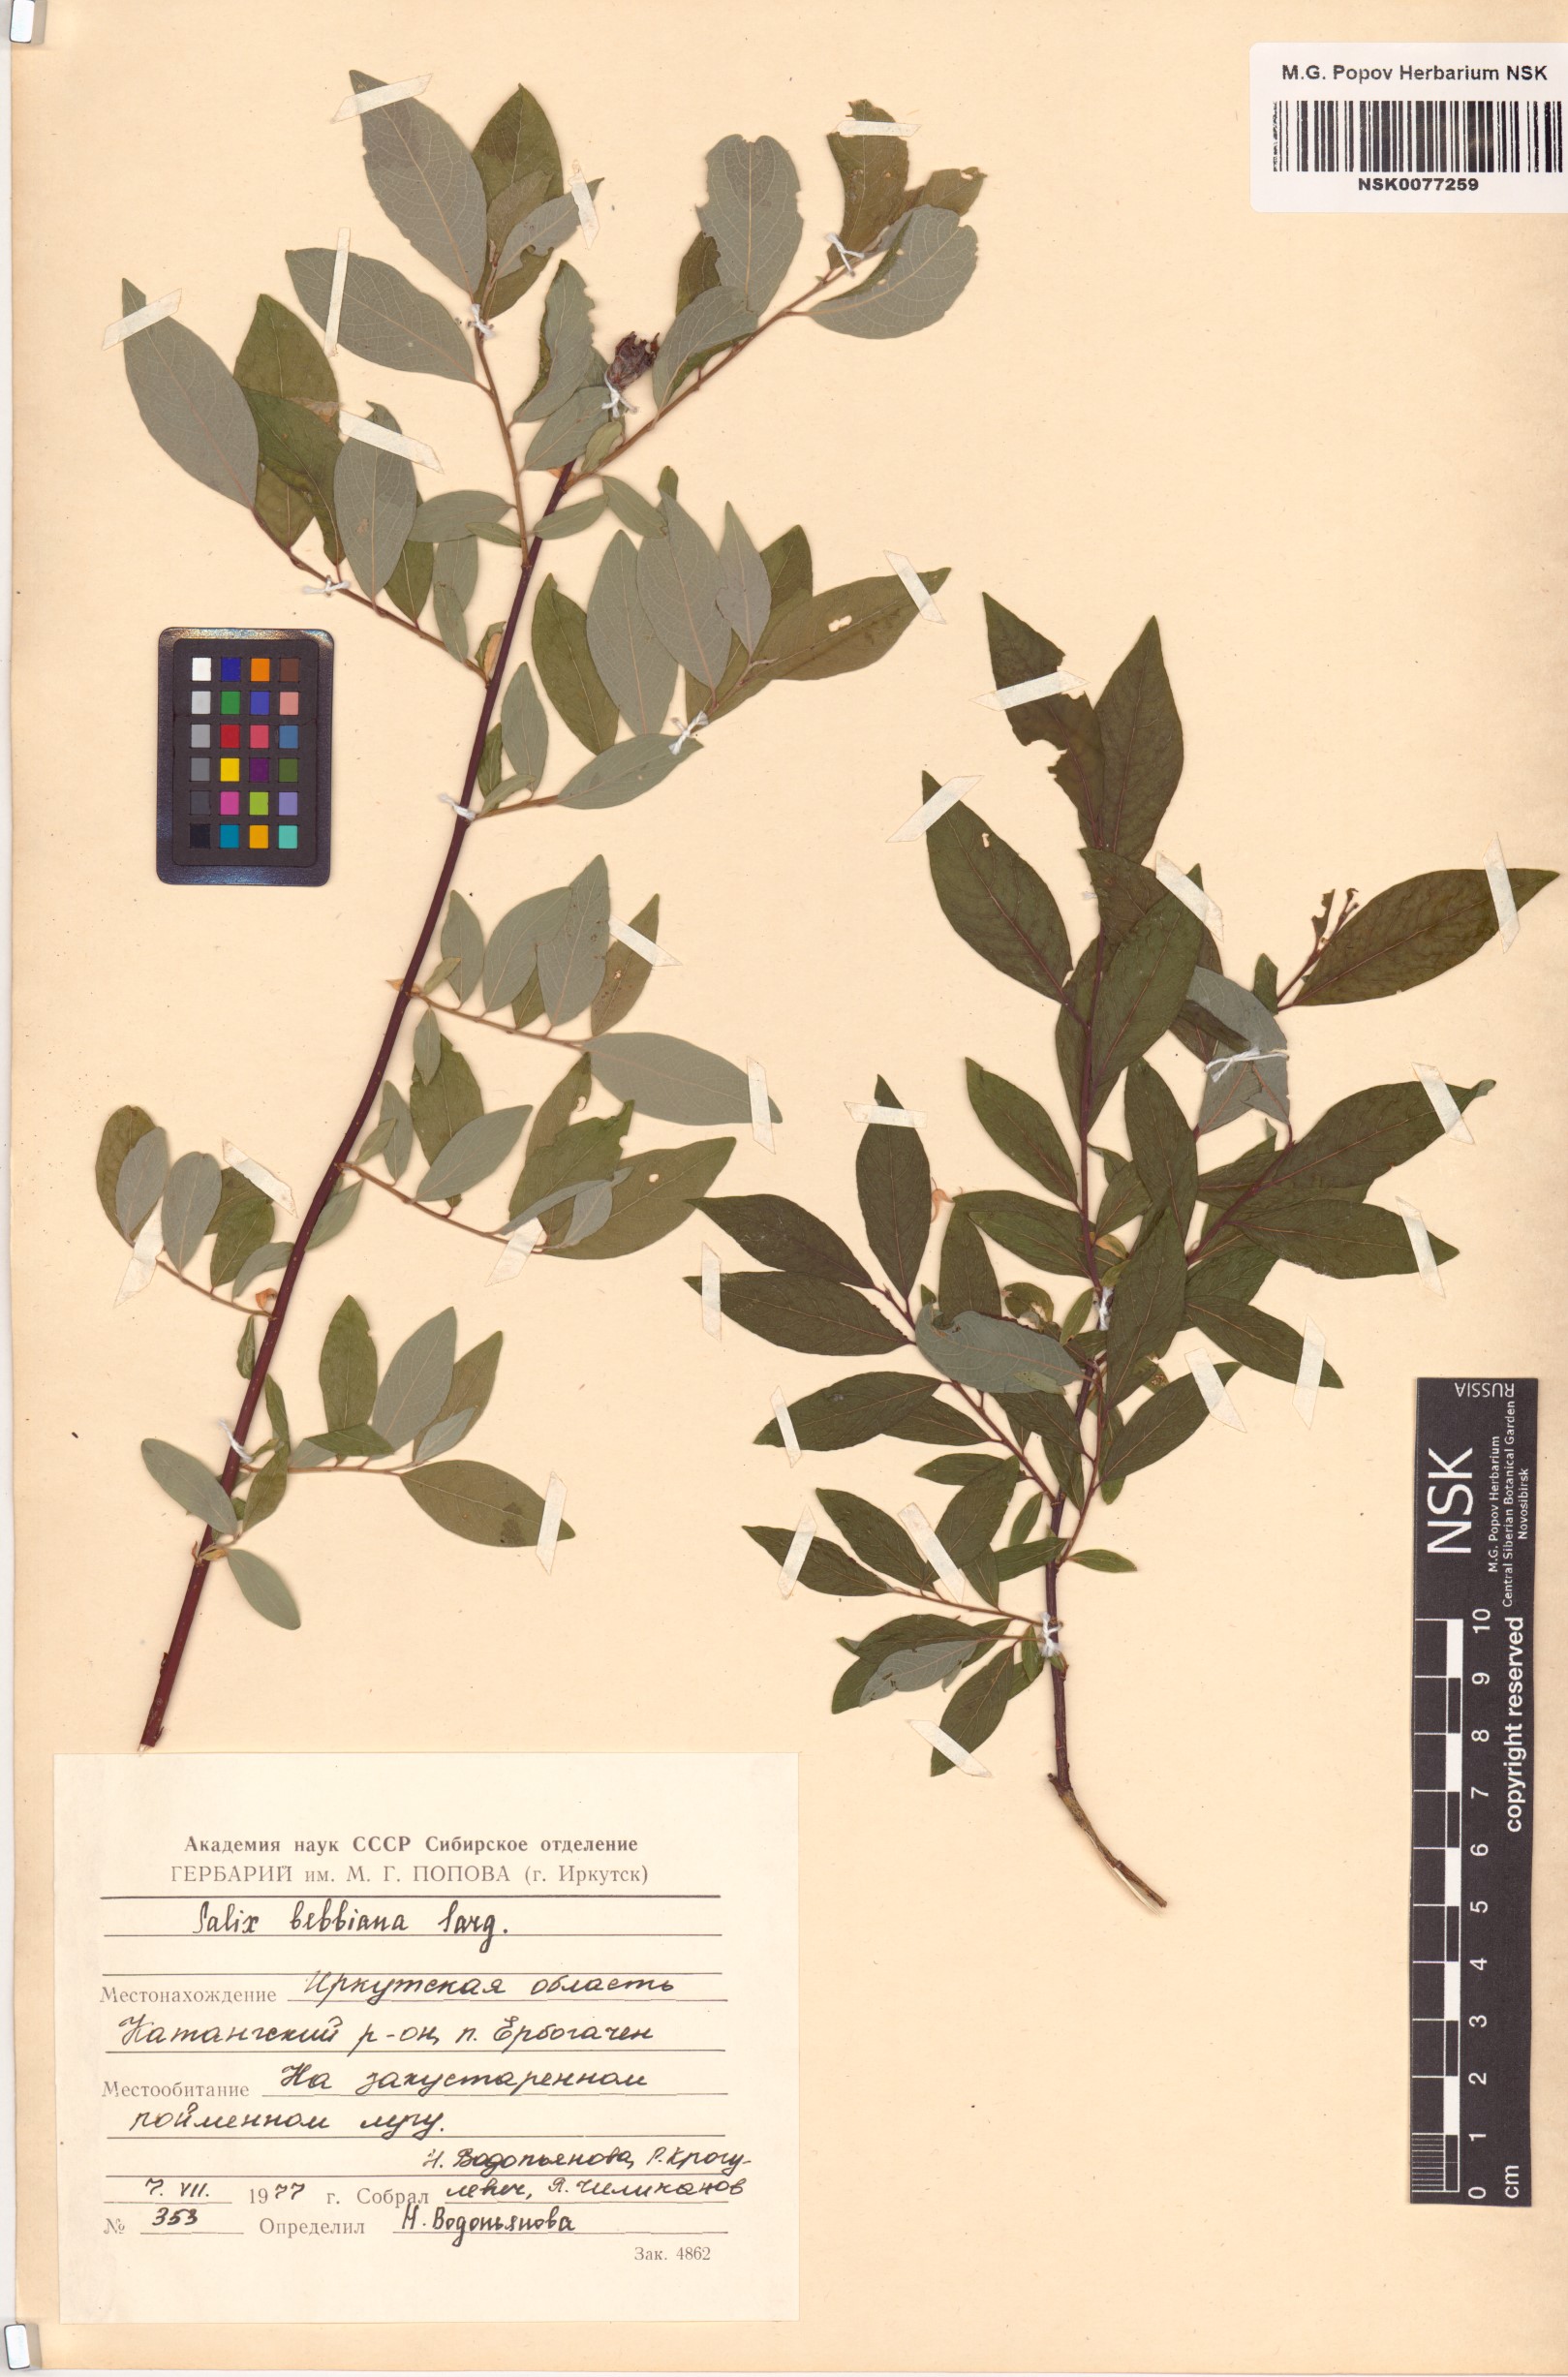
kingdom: Plantae
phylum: Tracheophyta
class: Magnoliopsida
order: Malpighiales
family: Salicaceae
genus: Salix
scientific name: Salix bebbiana
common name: Bebb's willow
